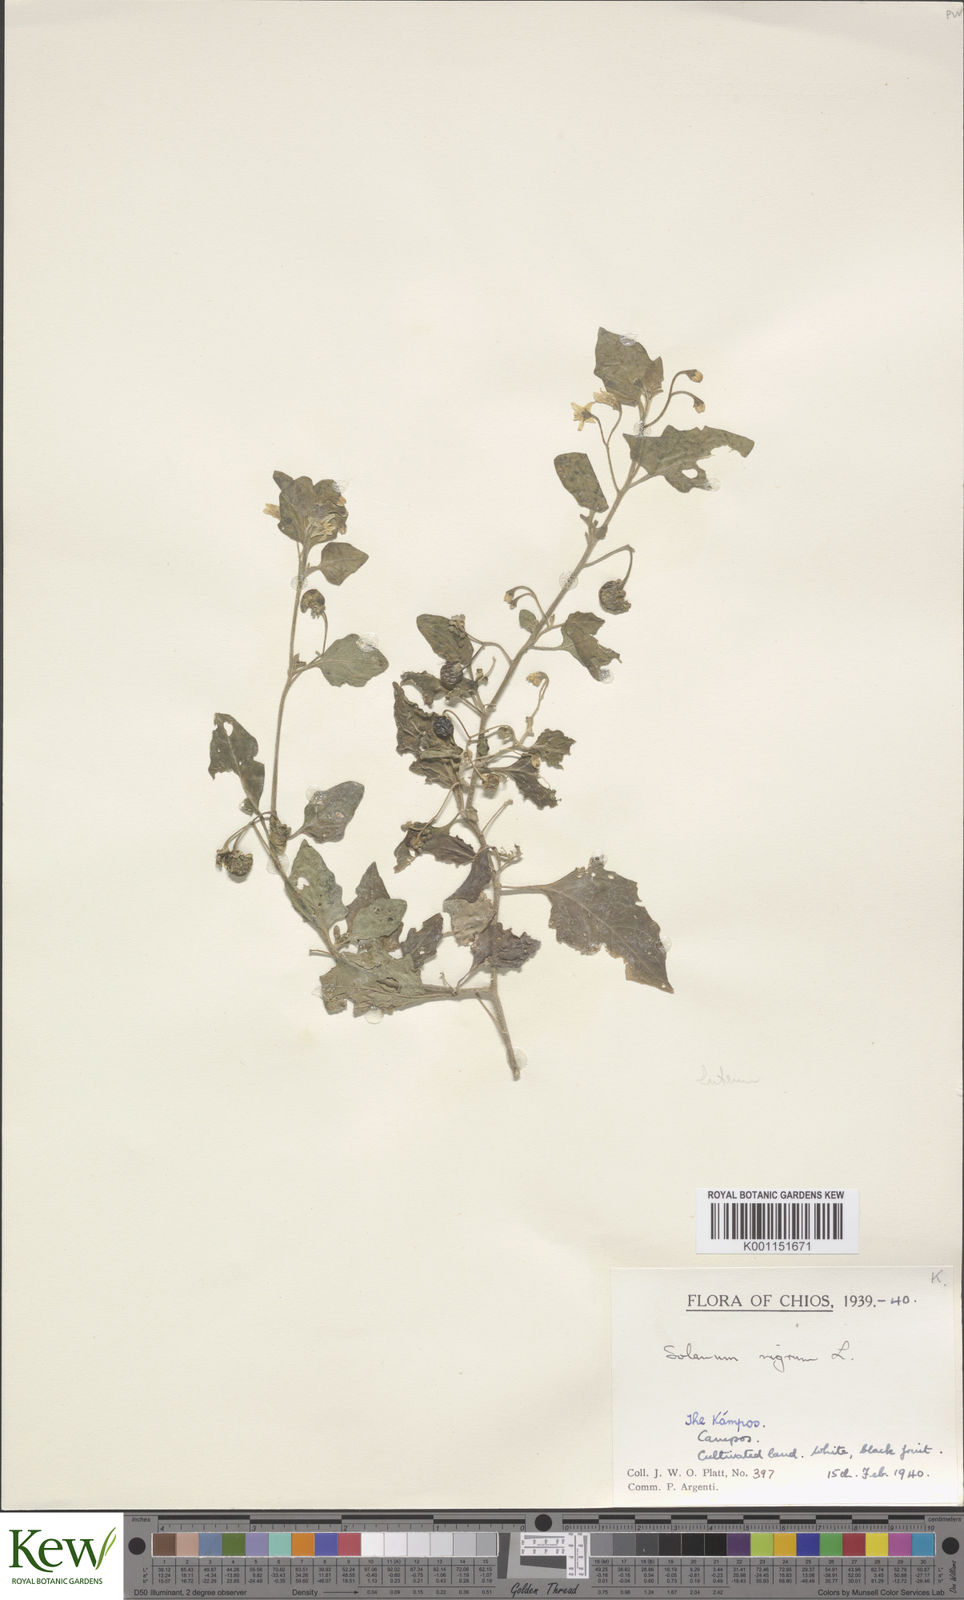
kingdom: Plantae
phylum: Tracheophyta
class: Magnoliopsida
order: Solanales
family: Solanaceae
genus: Solanum
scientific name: Solanum nigrum
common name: Black nightshade
